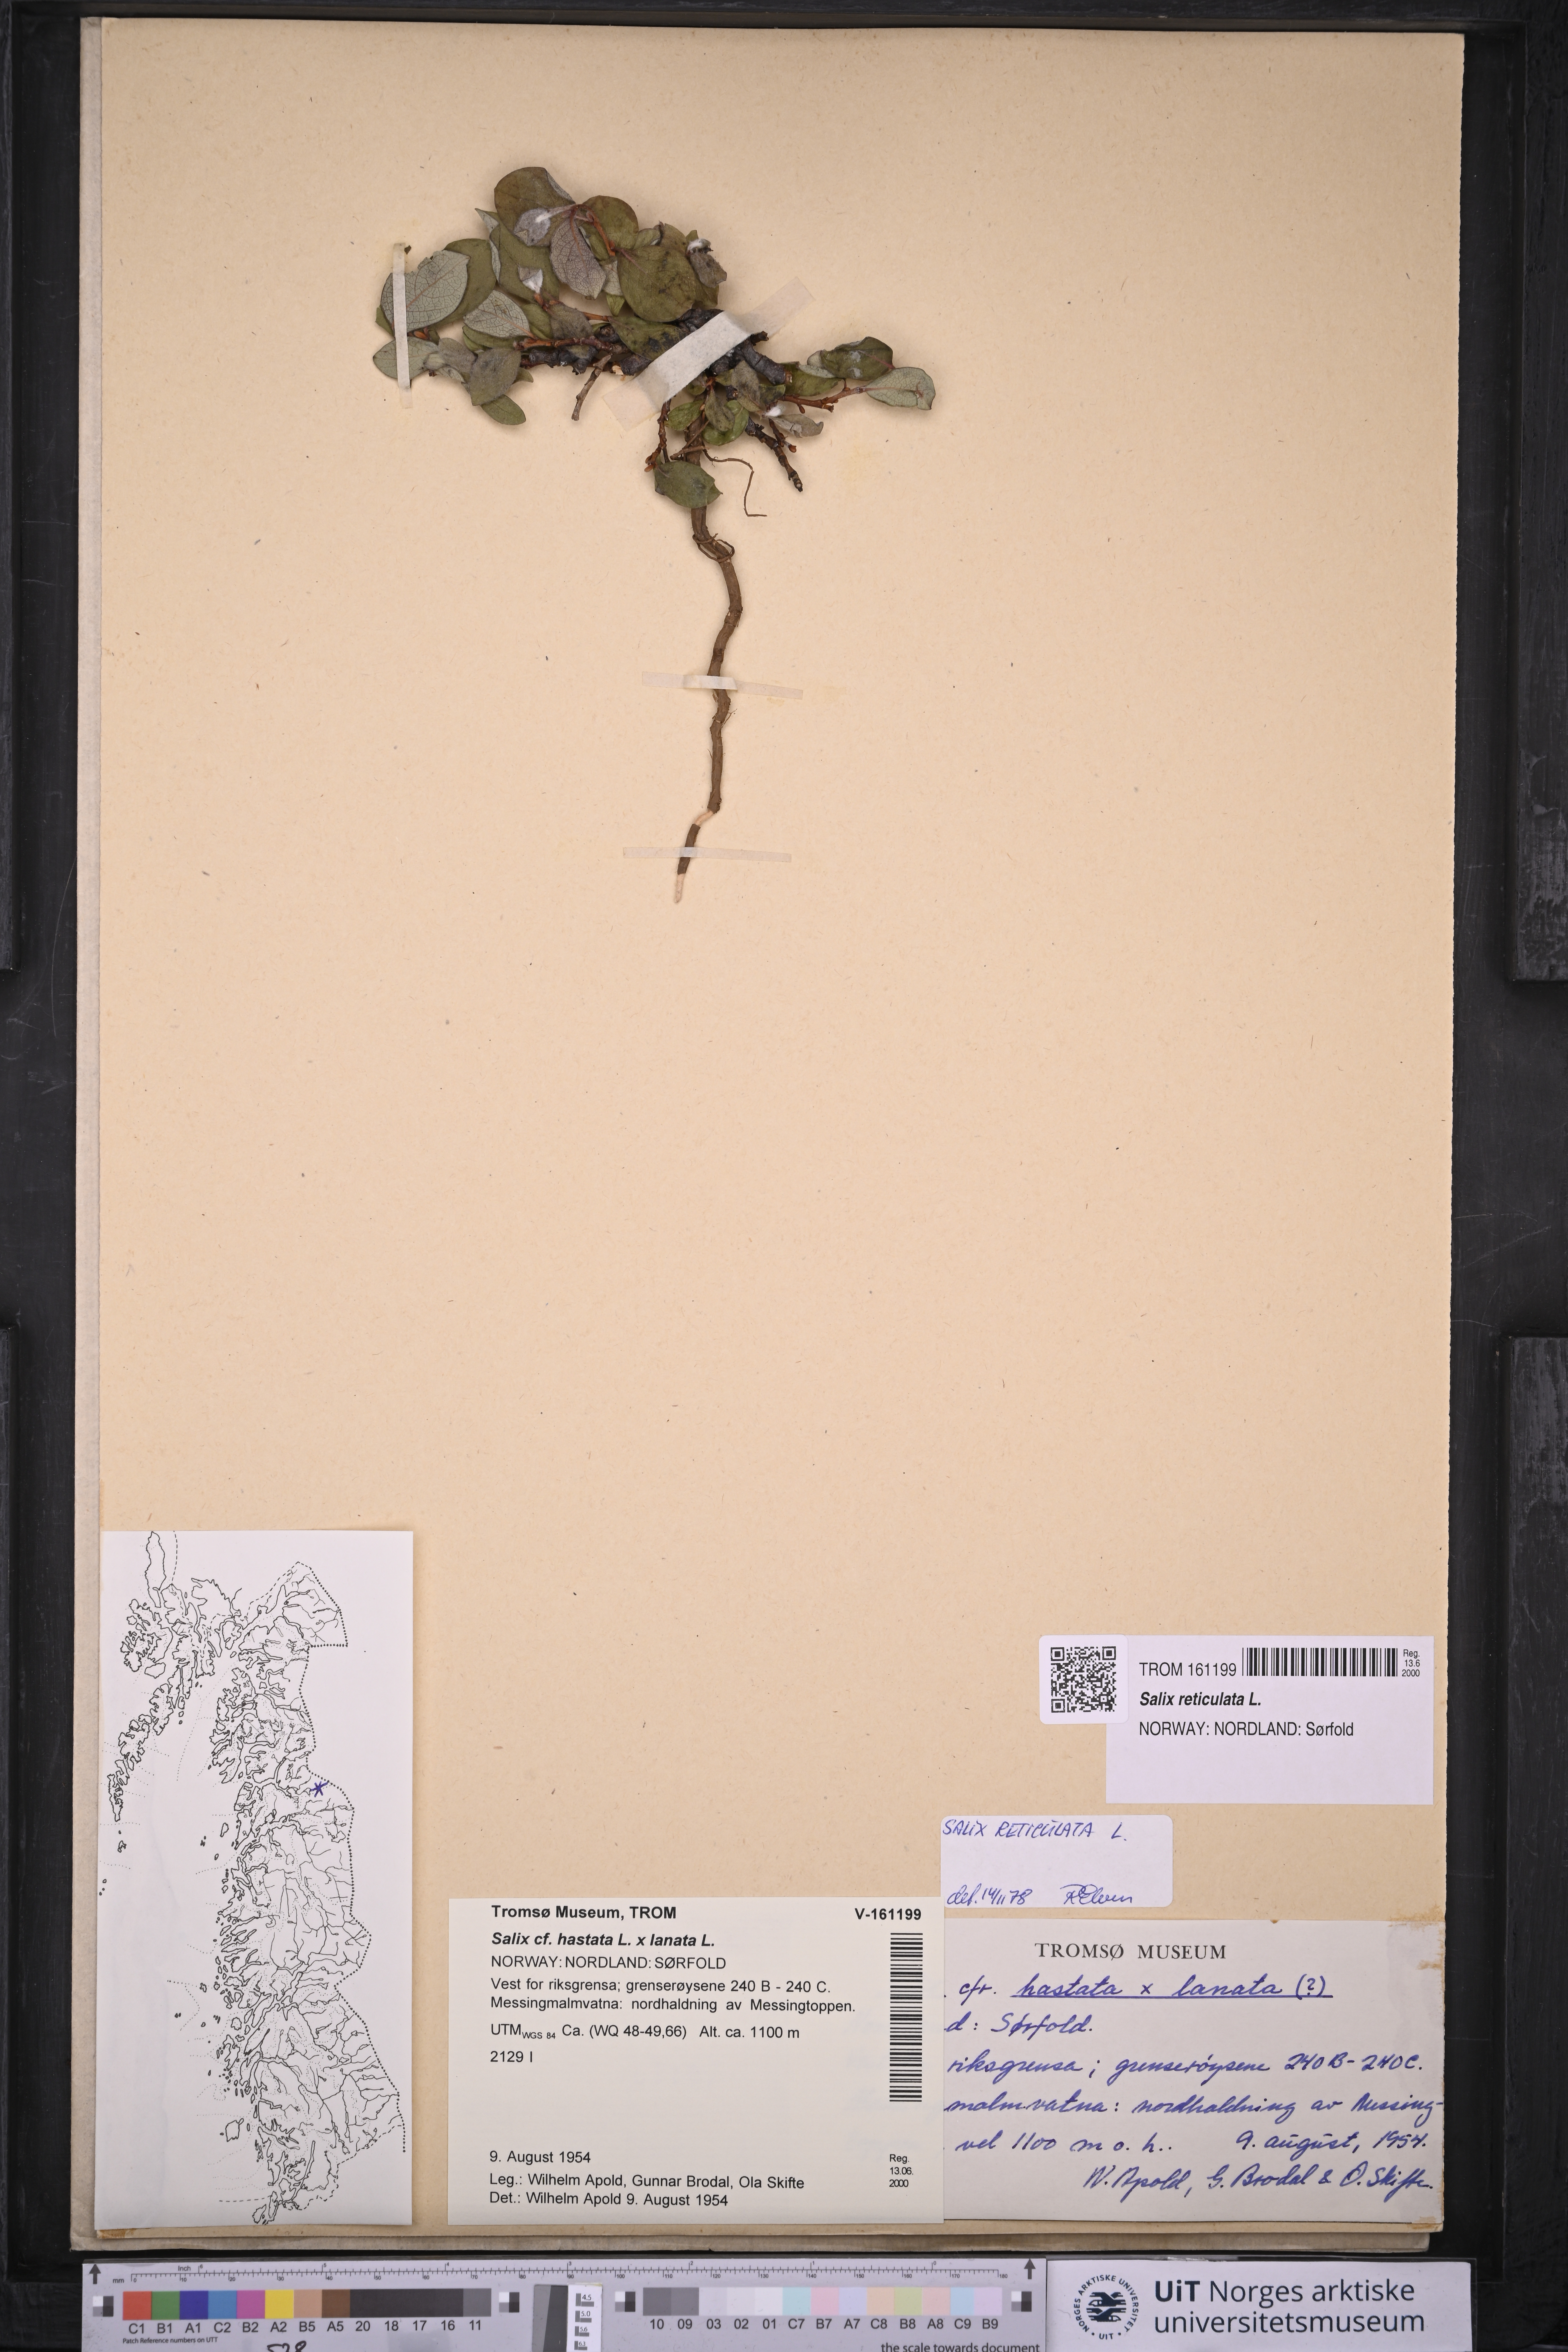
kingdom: Plantae
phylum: Tracheophyta
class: Magnoliopsida
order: Malpighiales
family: Salicaceae
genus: Salix
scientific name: Salix reticulata
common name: Net-leaved willow
